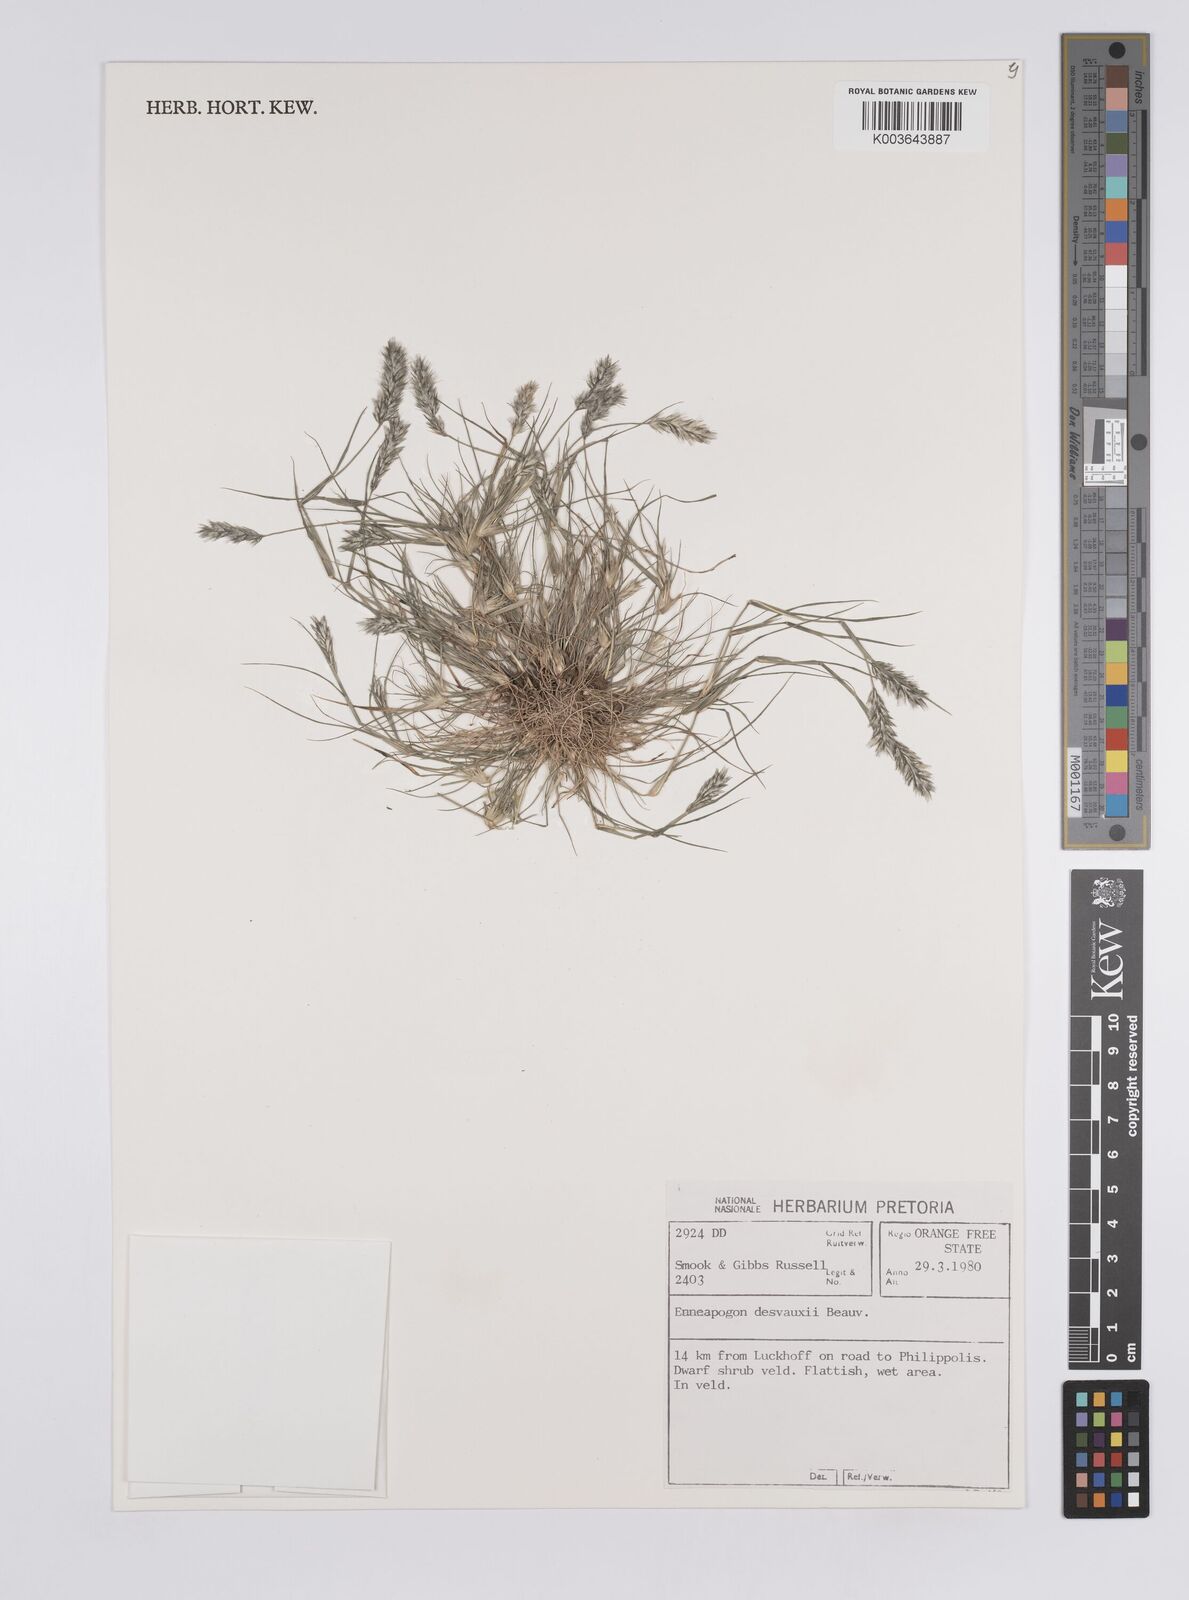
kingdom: Plantae
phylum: Tracheophyta
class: Liliopsida
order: Poales
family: Poaceae
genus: Enneapogon
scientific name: Enneapogon desvauxii
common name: Feather pappus grass
